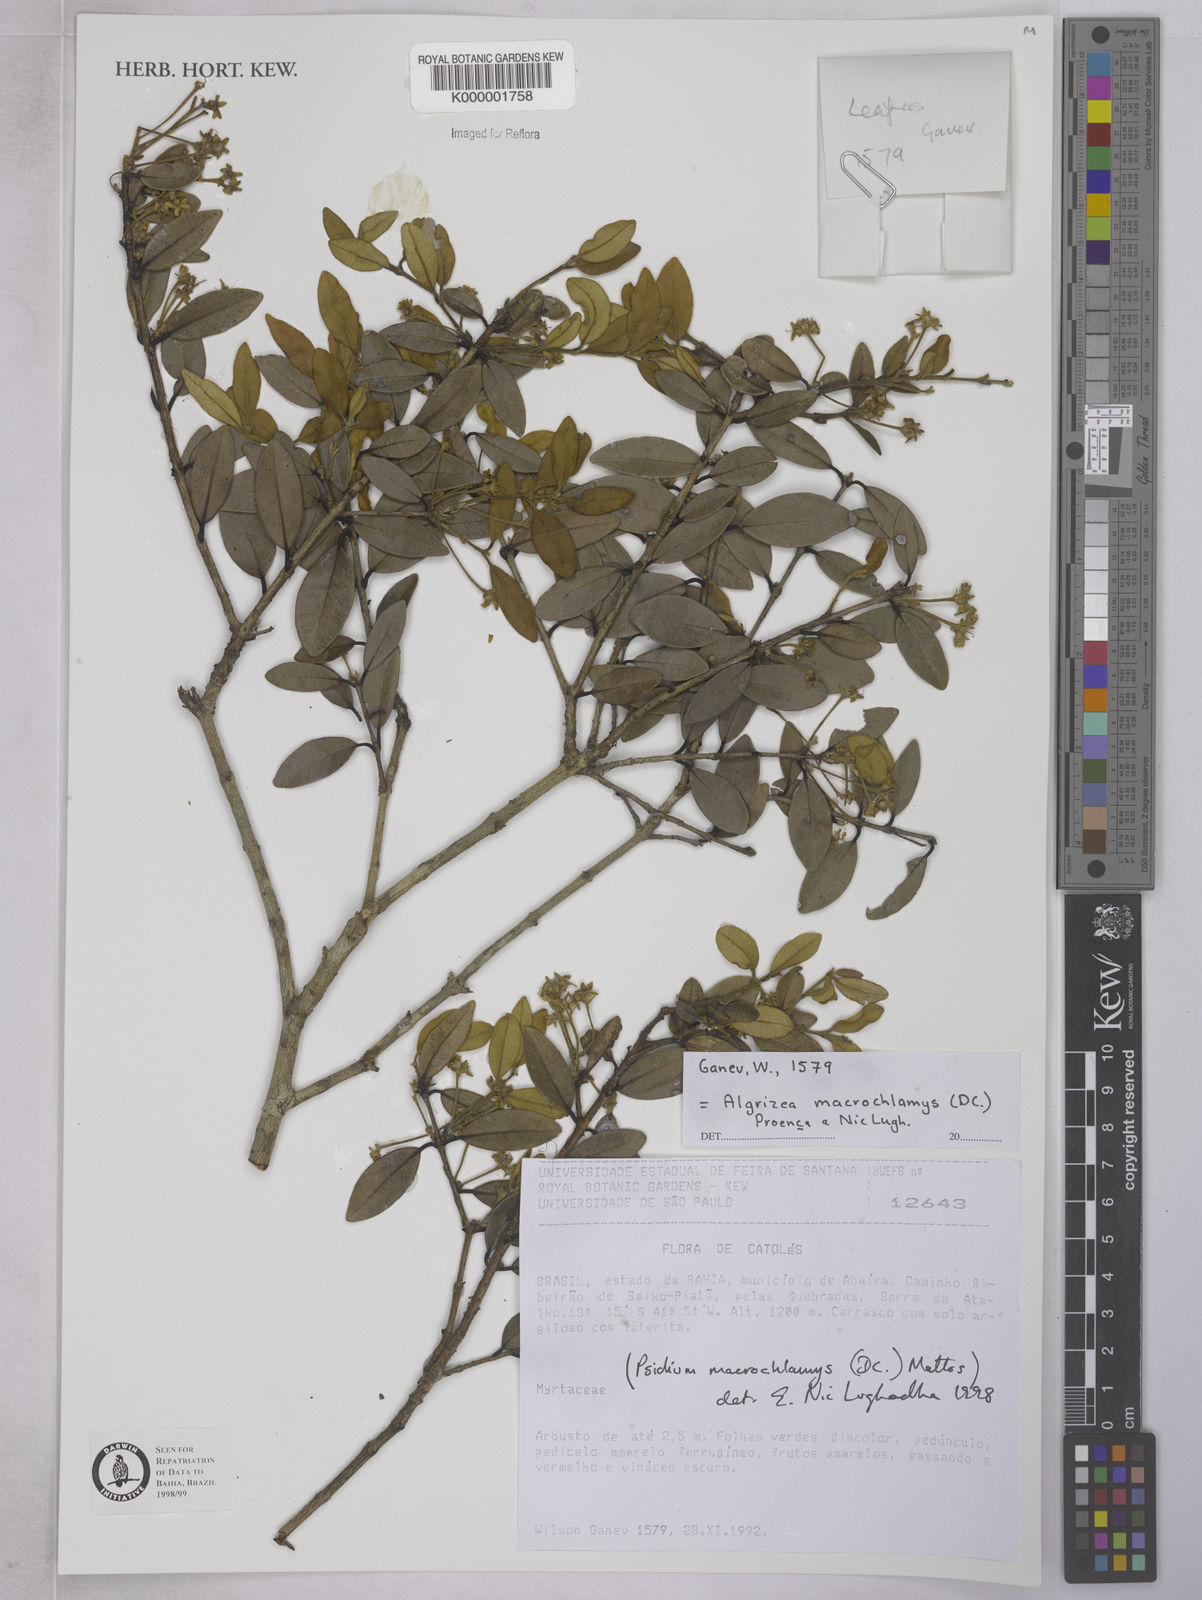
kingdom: Plantae
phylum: Tracheophyta
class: Magnoliopsida
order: Myrtales
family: Myrtaceae
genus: Algrizea
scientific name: Algrizea macrochlamys
